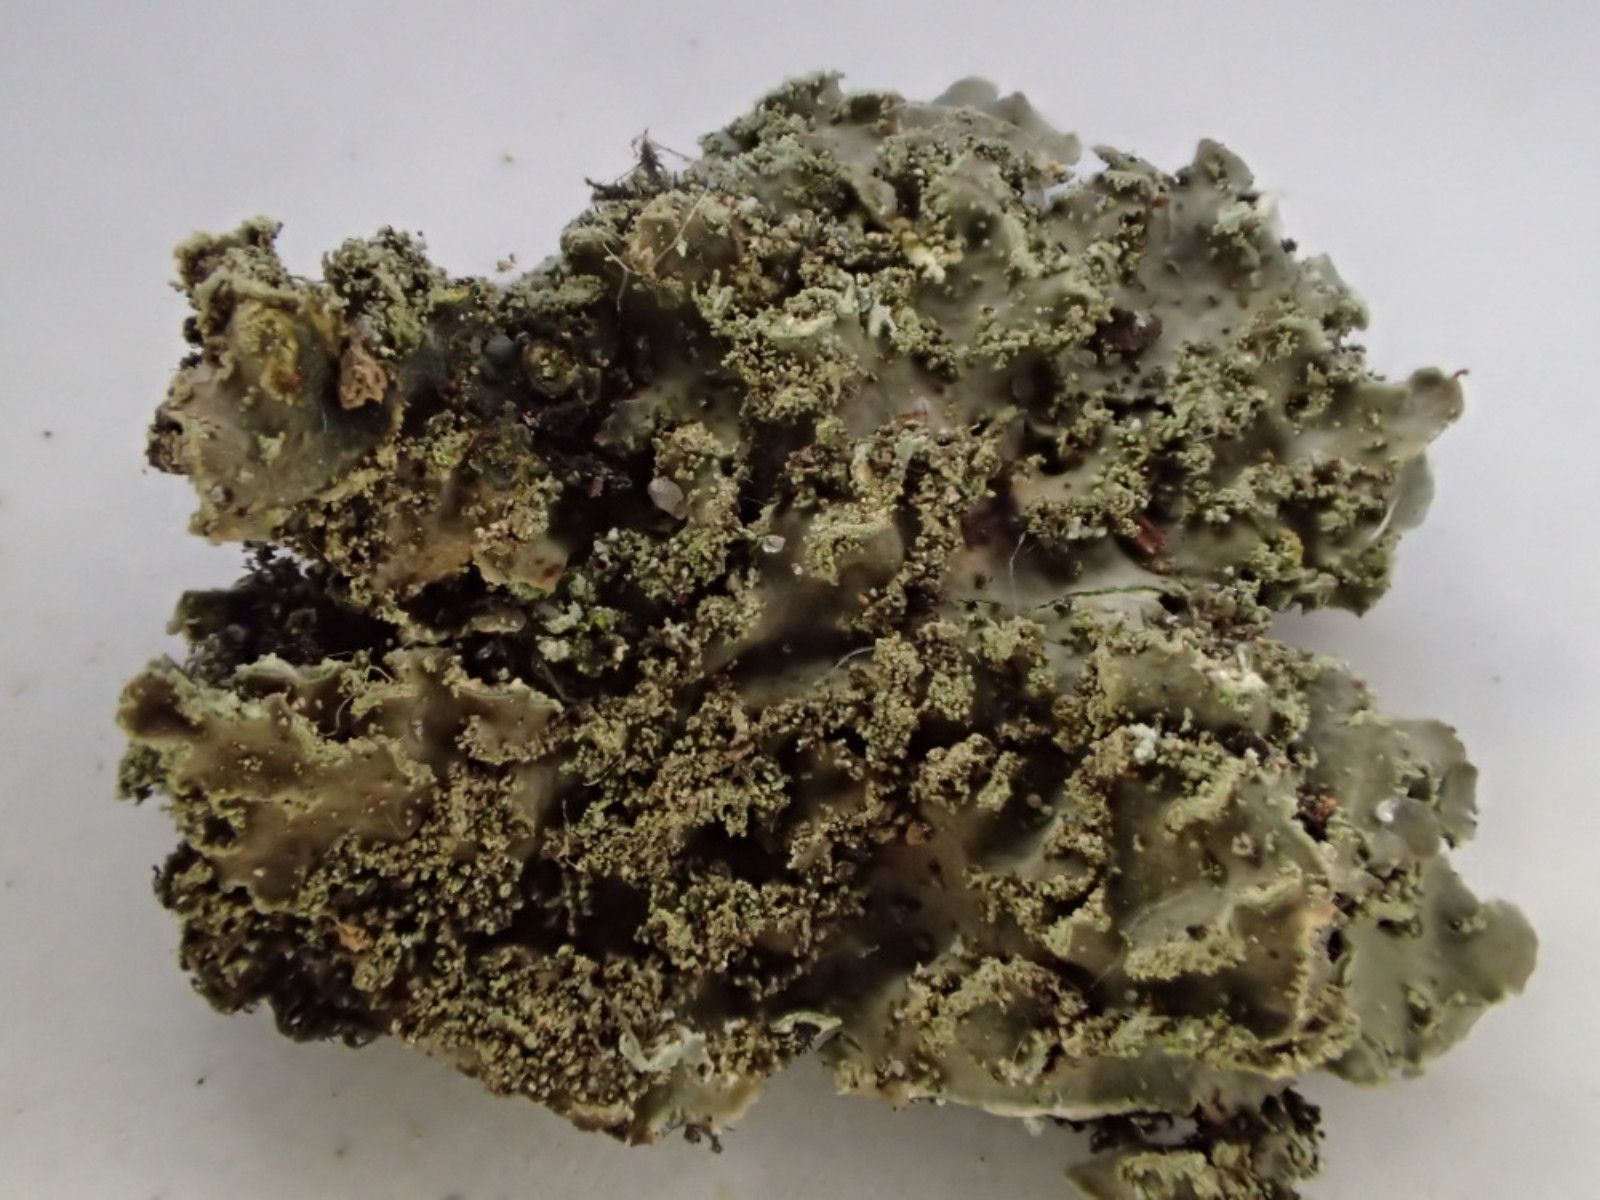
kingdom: Fungi
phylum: Ascomycota
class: Lecanoromycetes
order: Caliciales
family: Physciaceae
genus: Physconia
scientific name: Physconia perisidiosa
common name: liden dugrosetlav
